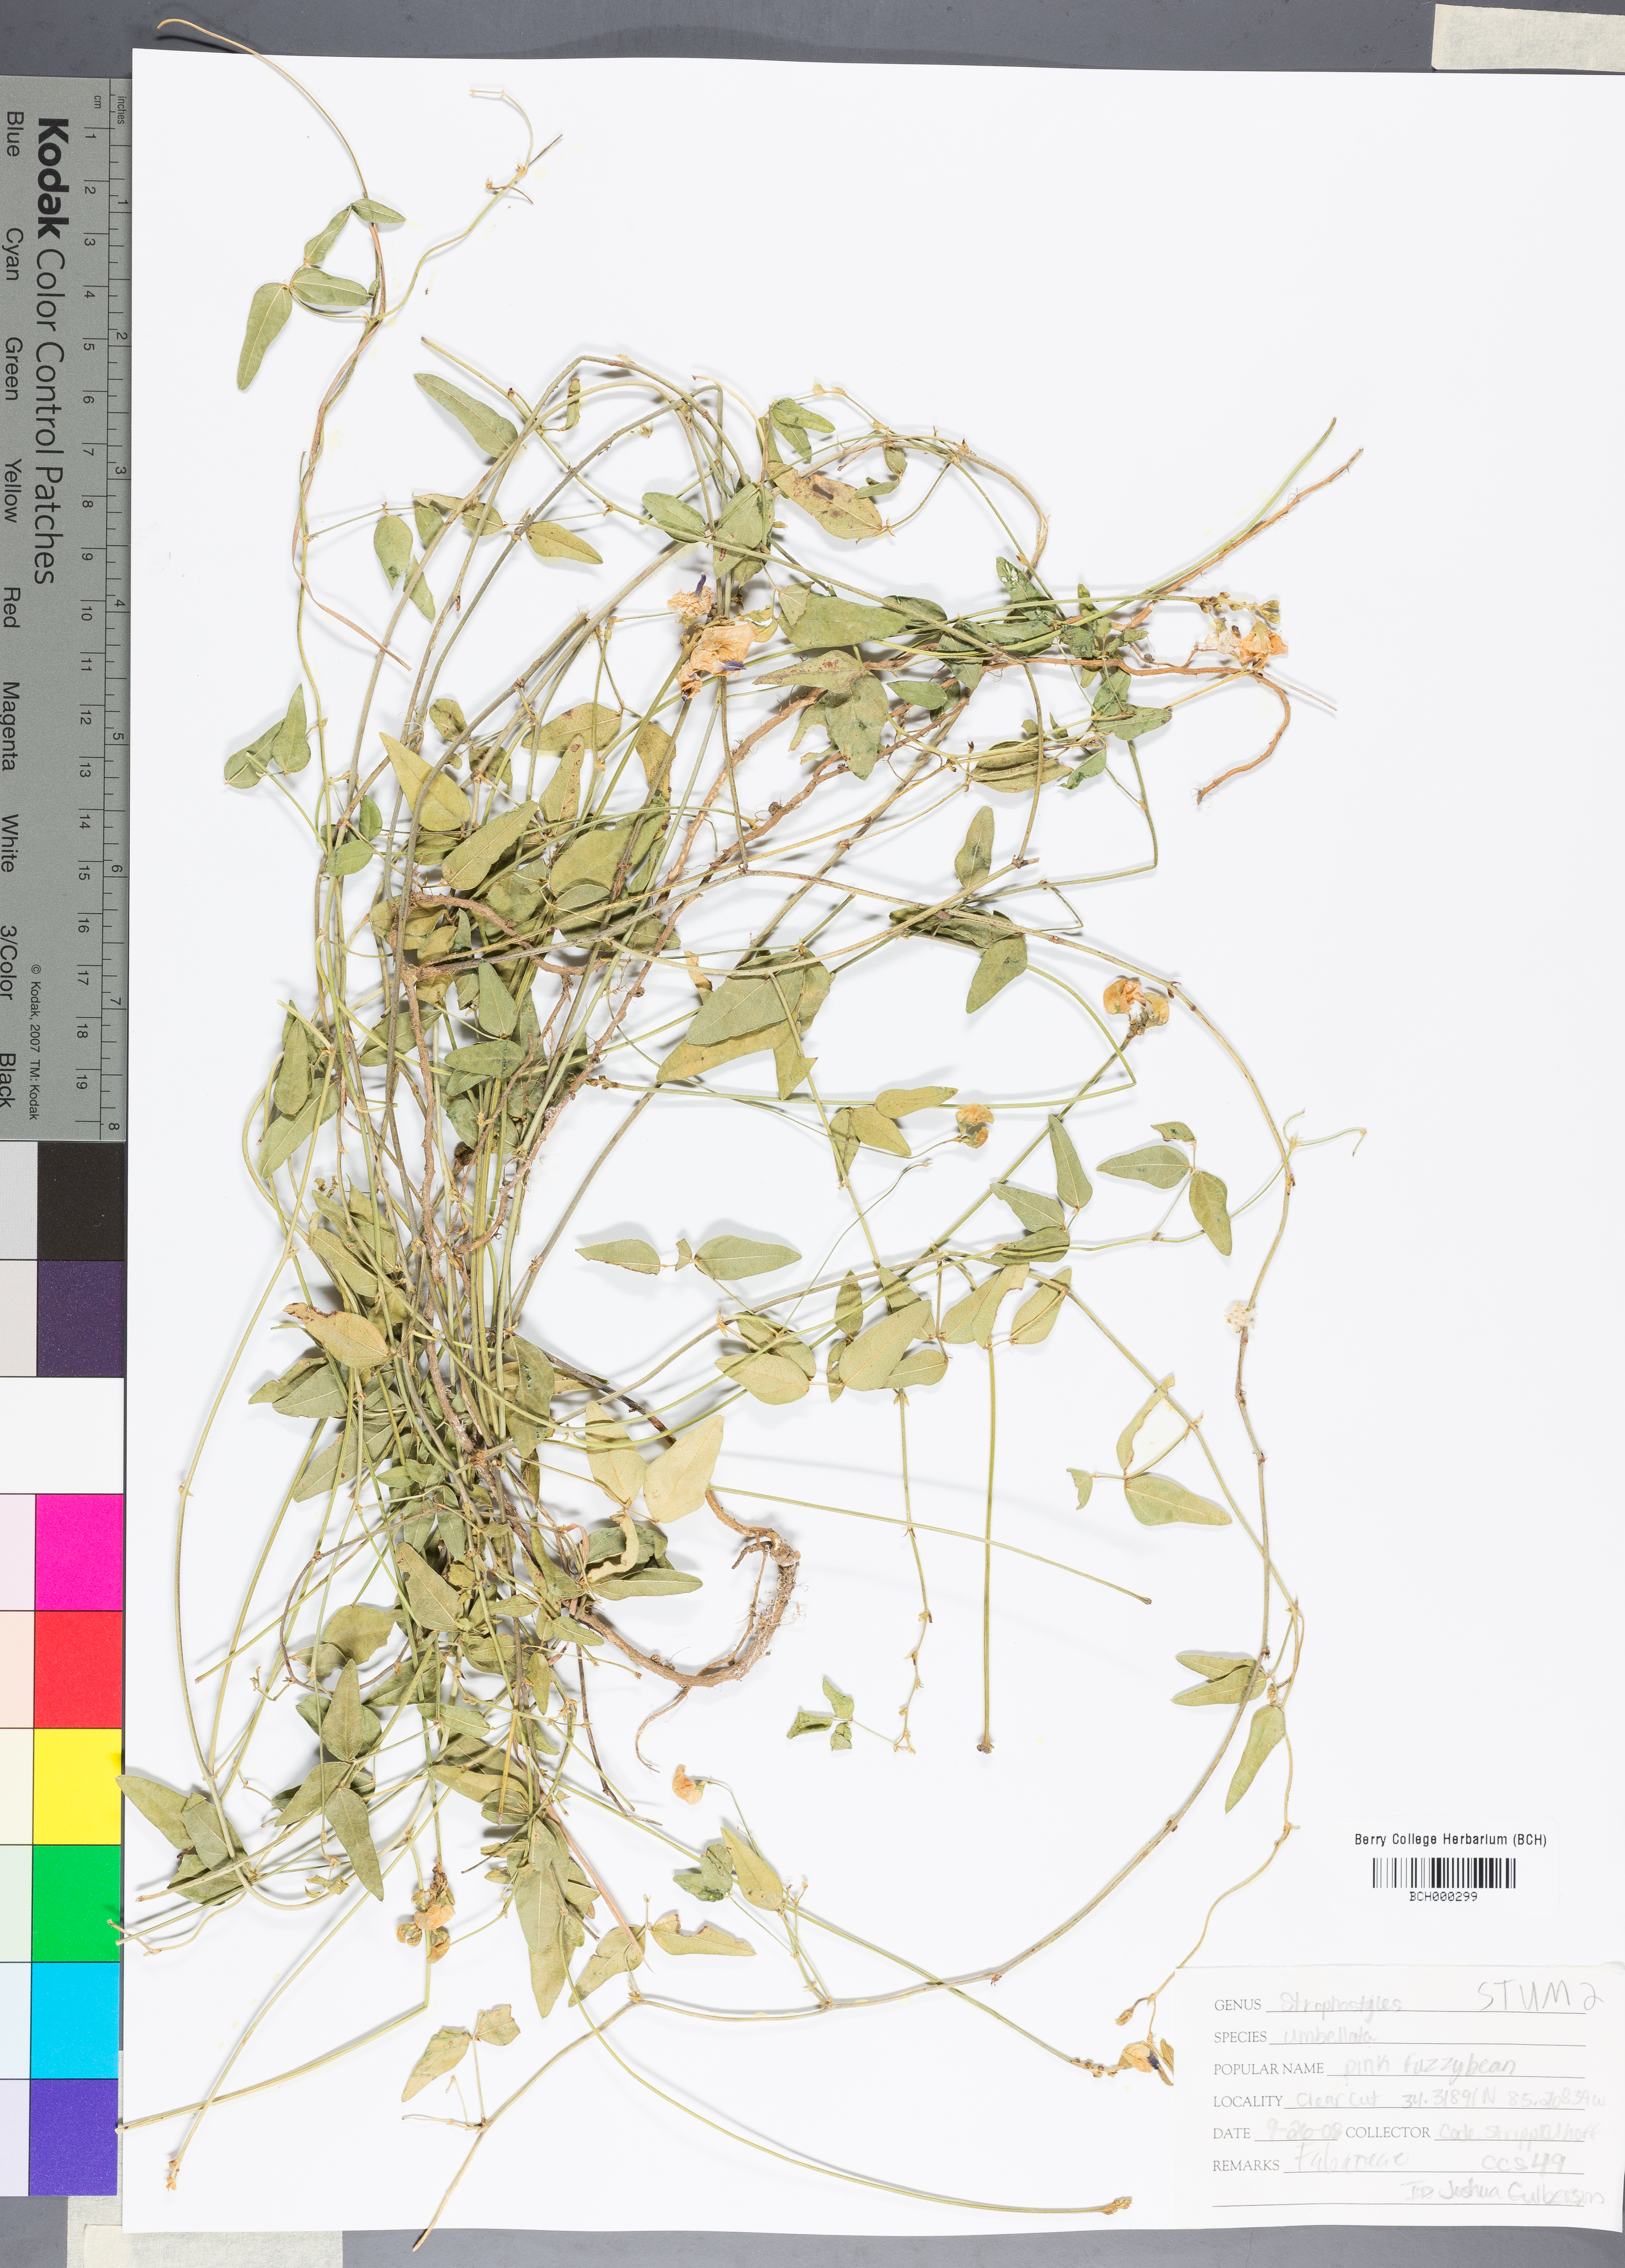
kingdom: Plantae
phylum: Tracheophyta
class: Magnoliopsida
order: Fabales
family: Fabaceae
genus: Strophostyles
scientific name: Strophostyles umbellata
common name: Perennial wild bean
